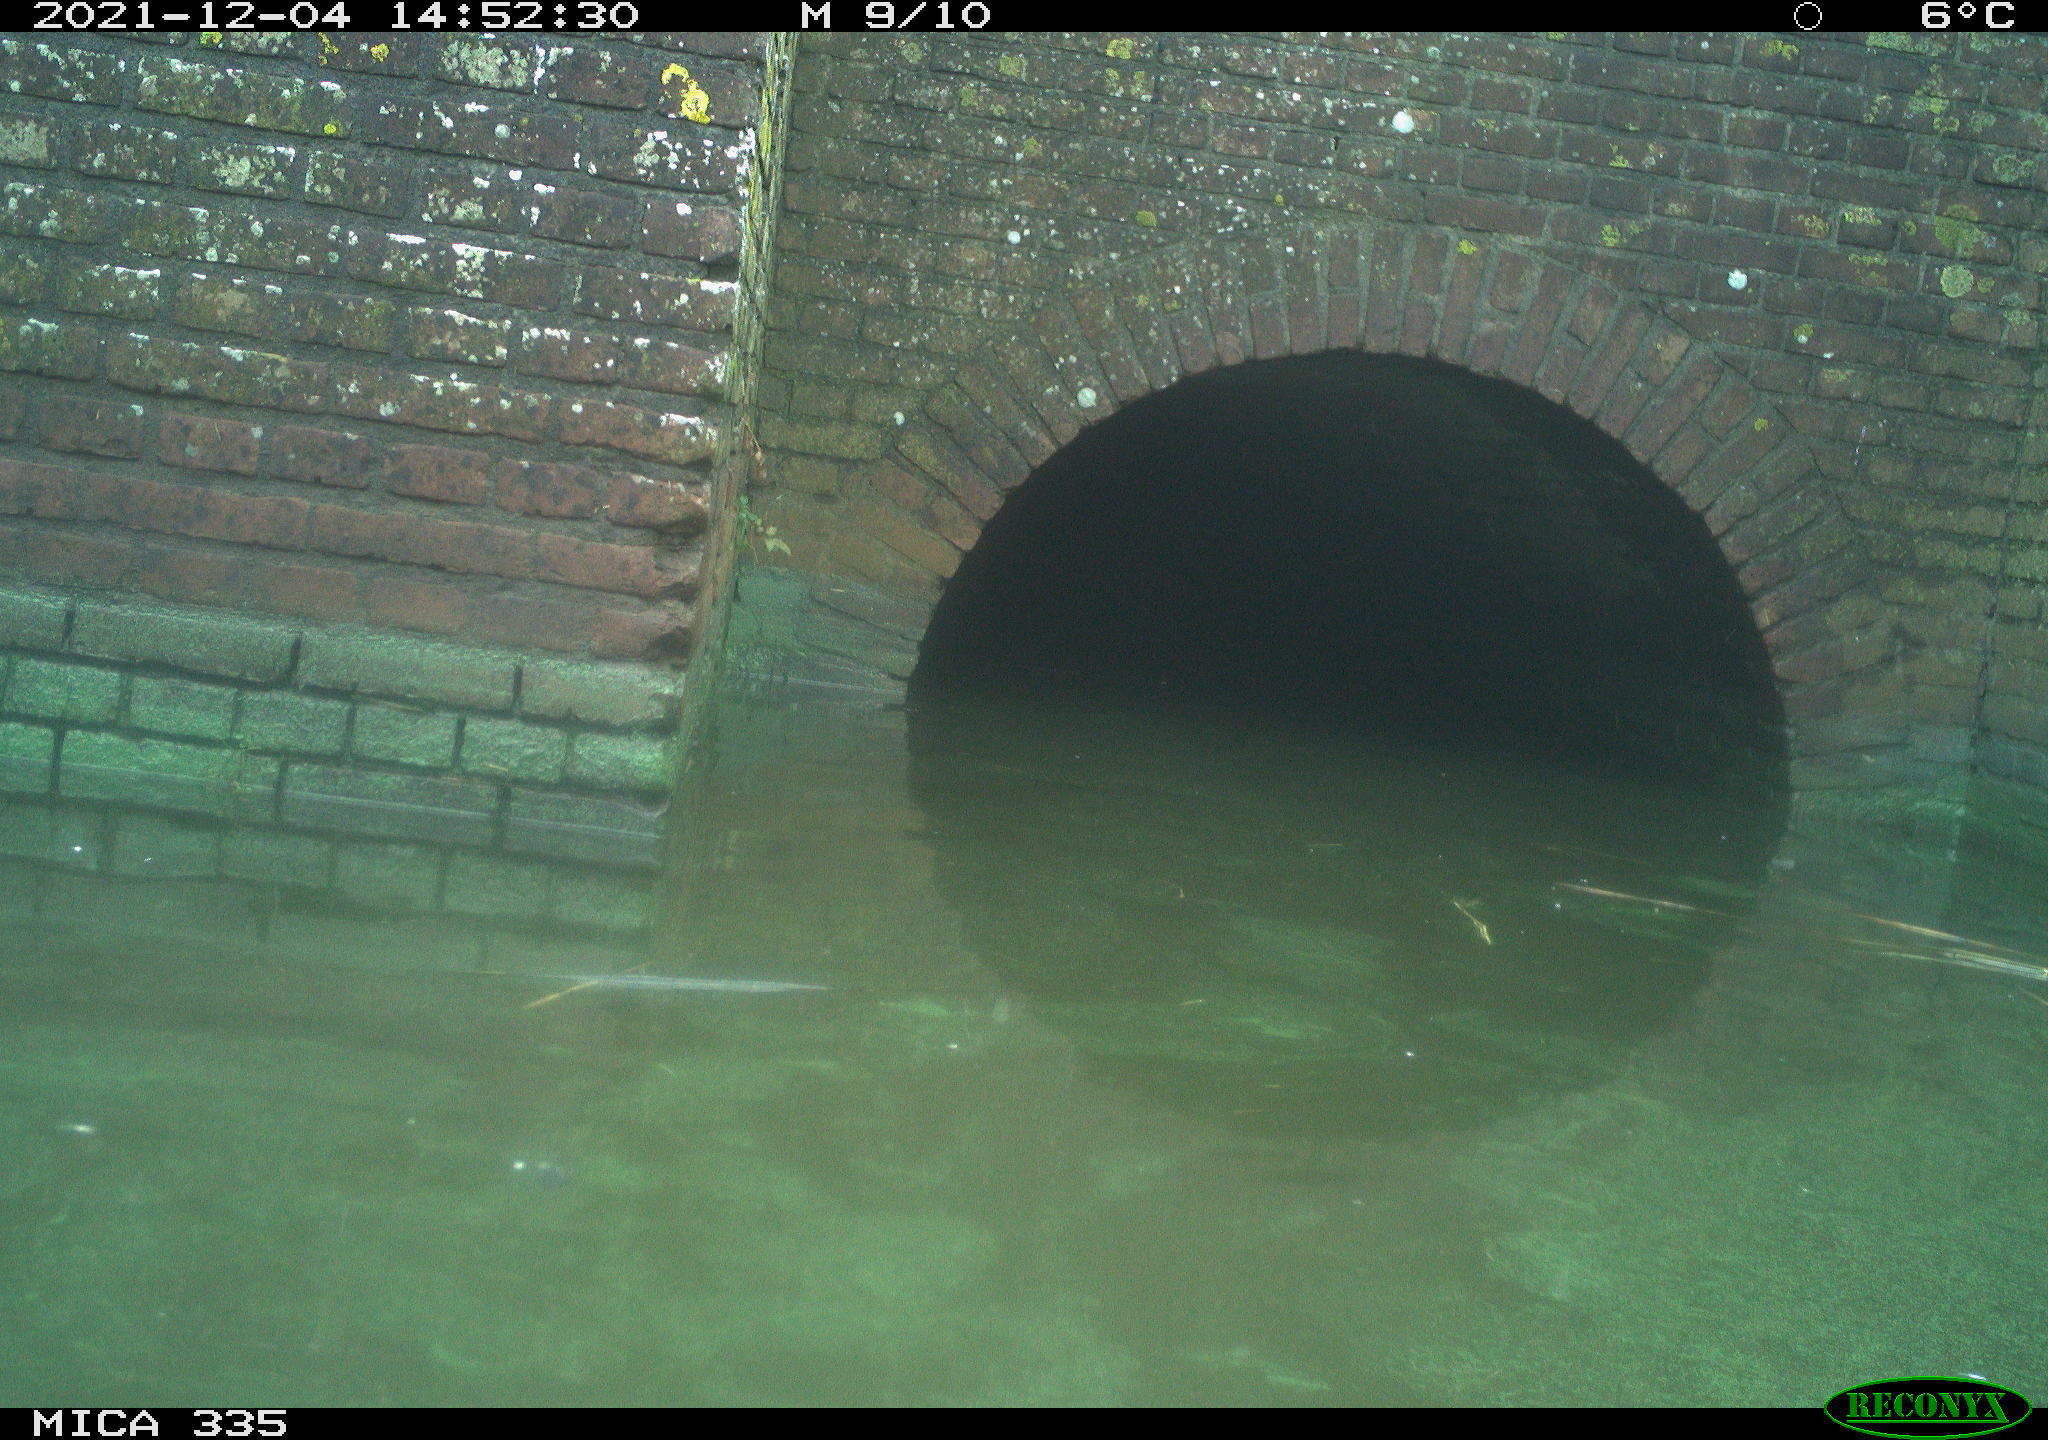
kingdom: Animalia
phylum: Chordata
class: Aves
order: Gruiformes
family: Rallidae
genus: Fulica
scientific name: Fulica atra
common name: Eurasian coot
